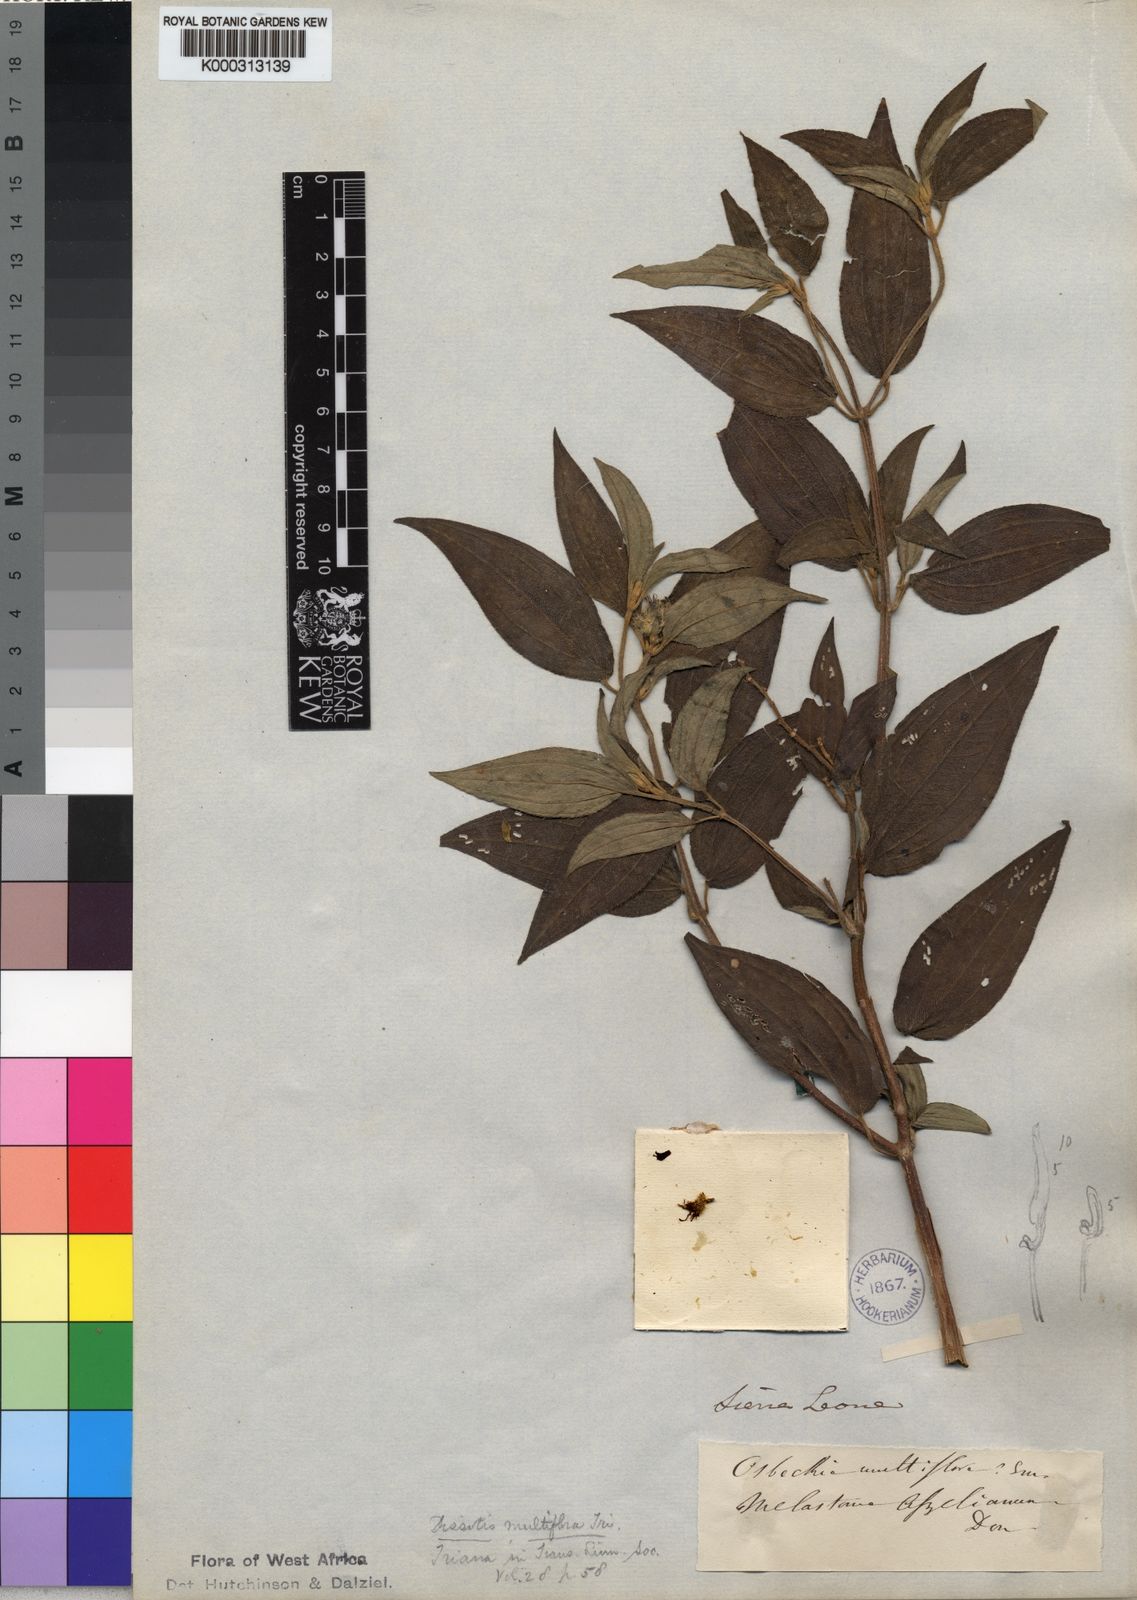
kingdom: Plantae
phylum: Tracheophyta
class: Magnoliopsida
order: Myrtales
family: Melastomataceae
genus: Dupineta
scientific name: Dupineta multiflora
